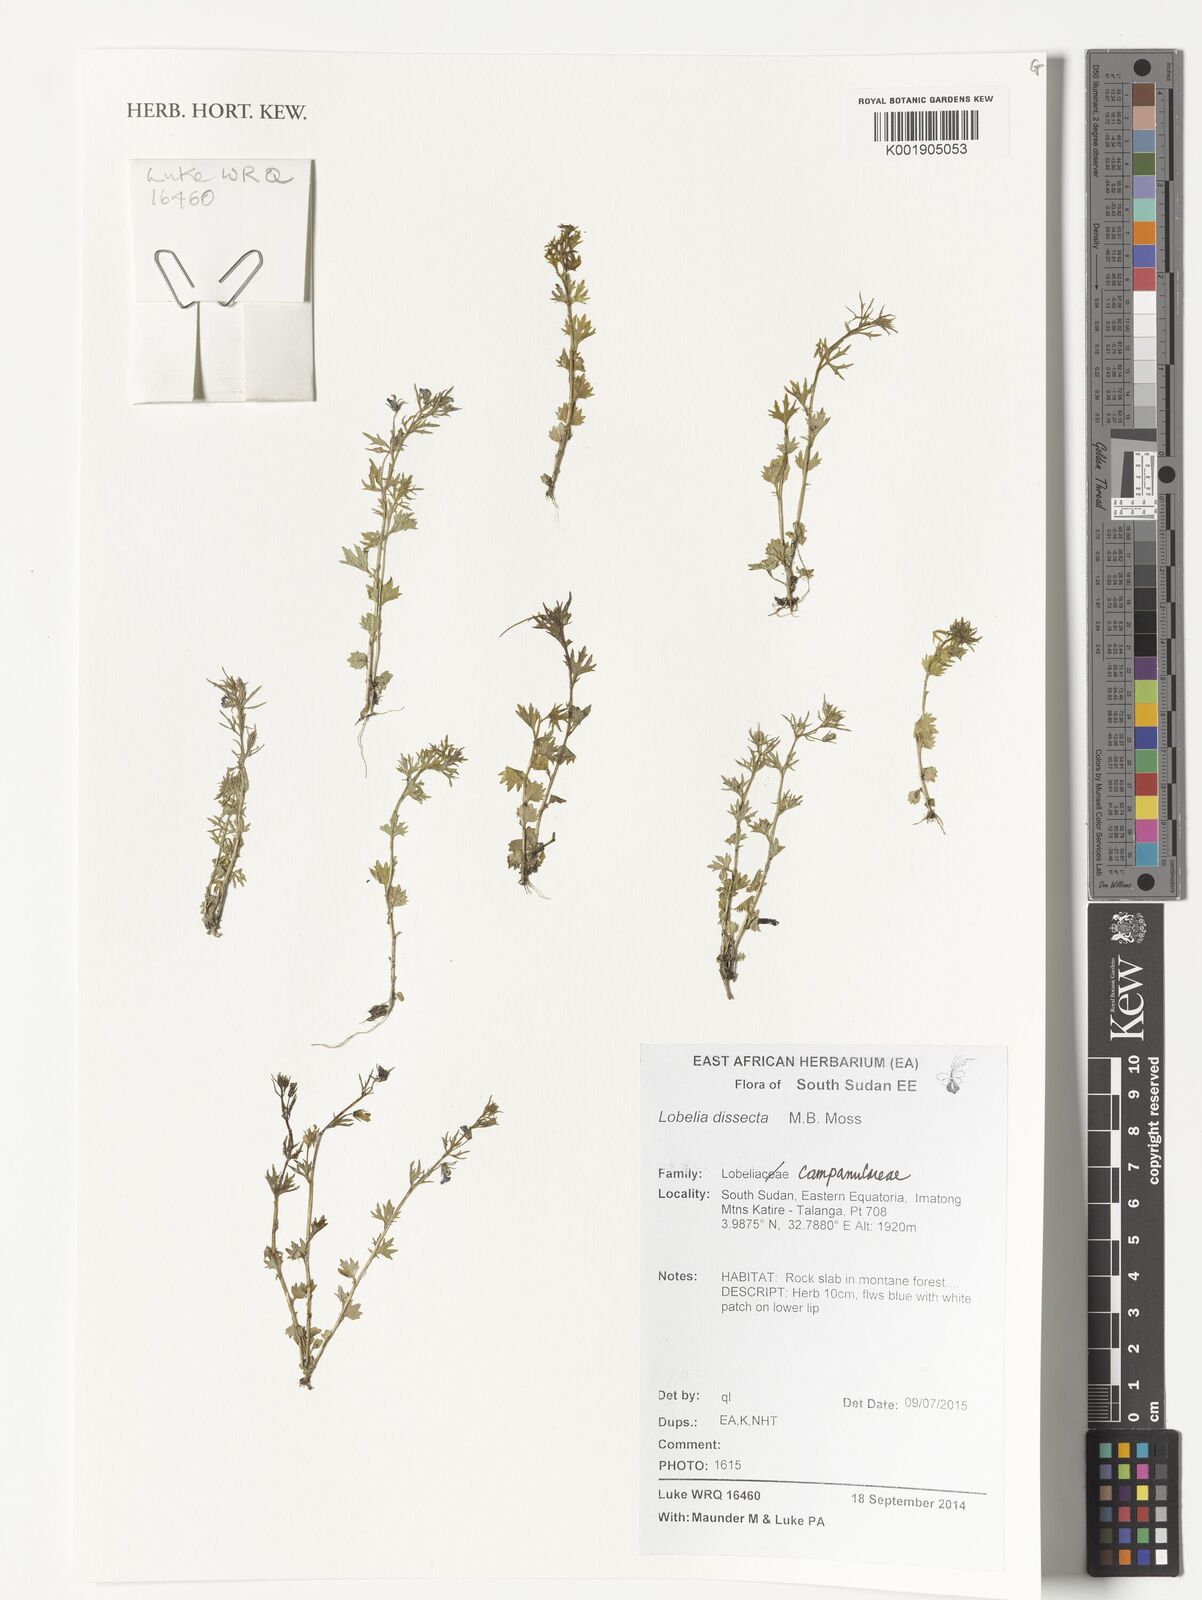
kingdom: Plantae
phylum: Tracheophyta
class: Magnoliopsida
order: Asterales
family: Campanulaceae
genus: Lobelia
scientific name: Lobelia dissecta
